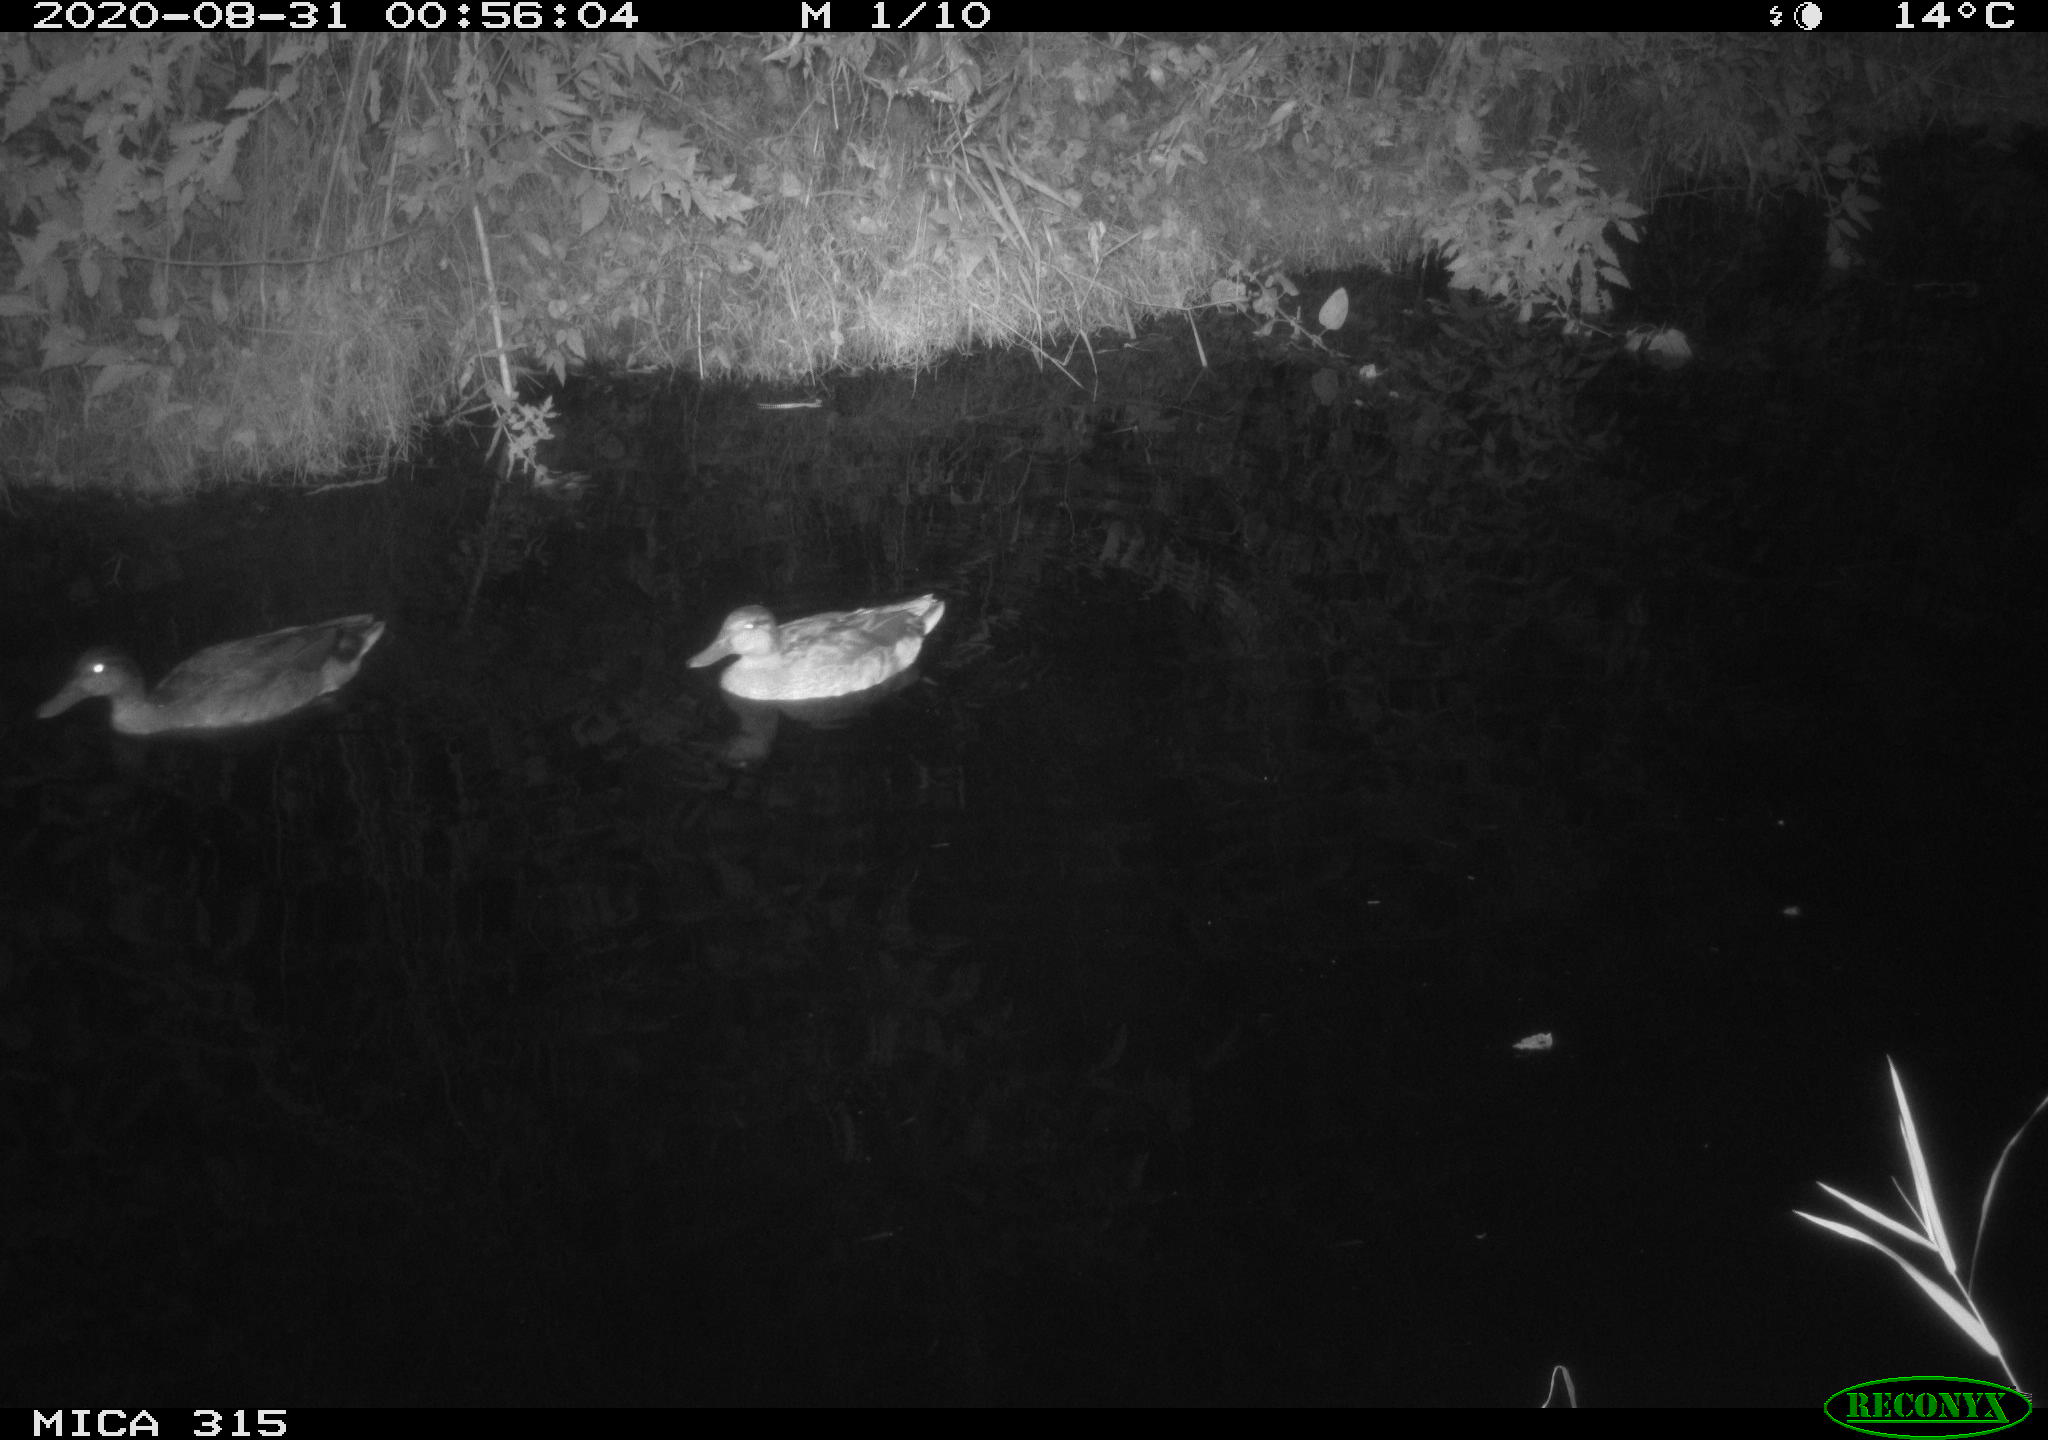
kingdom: Animalia
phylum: Chordata
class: Aves
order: Anseriformes
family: Anatidae
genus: Anas
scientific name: Anas platyrhynchos
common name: Mallard
